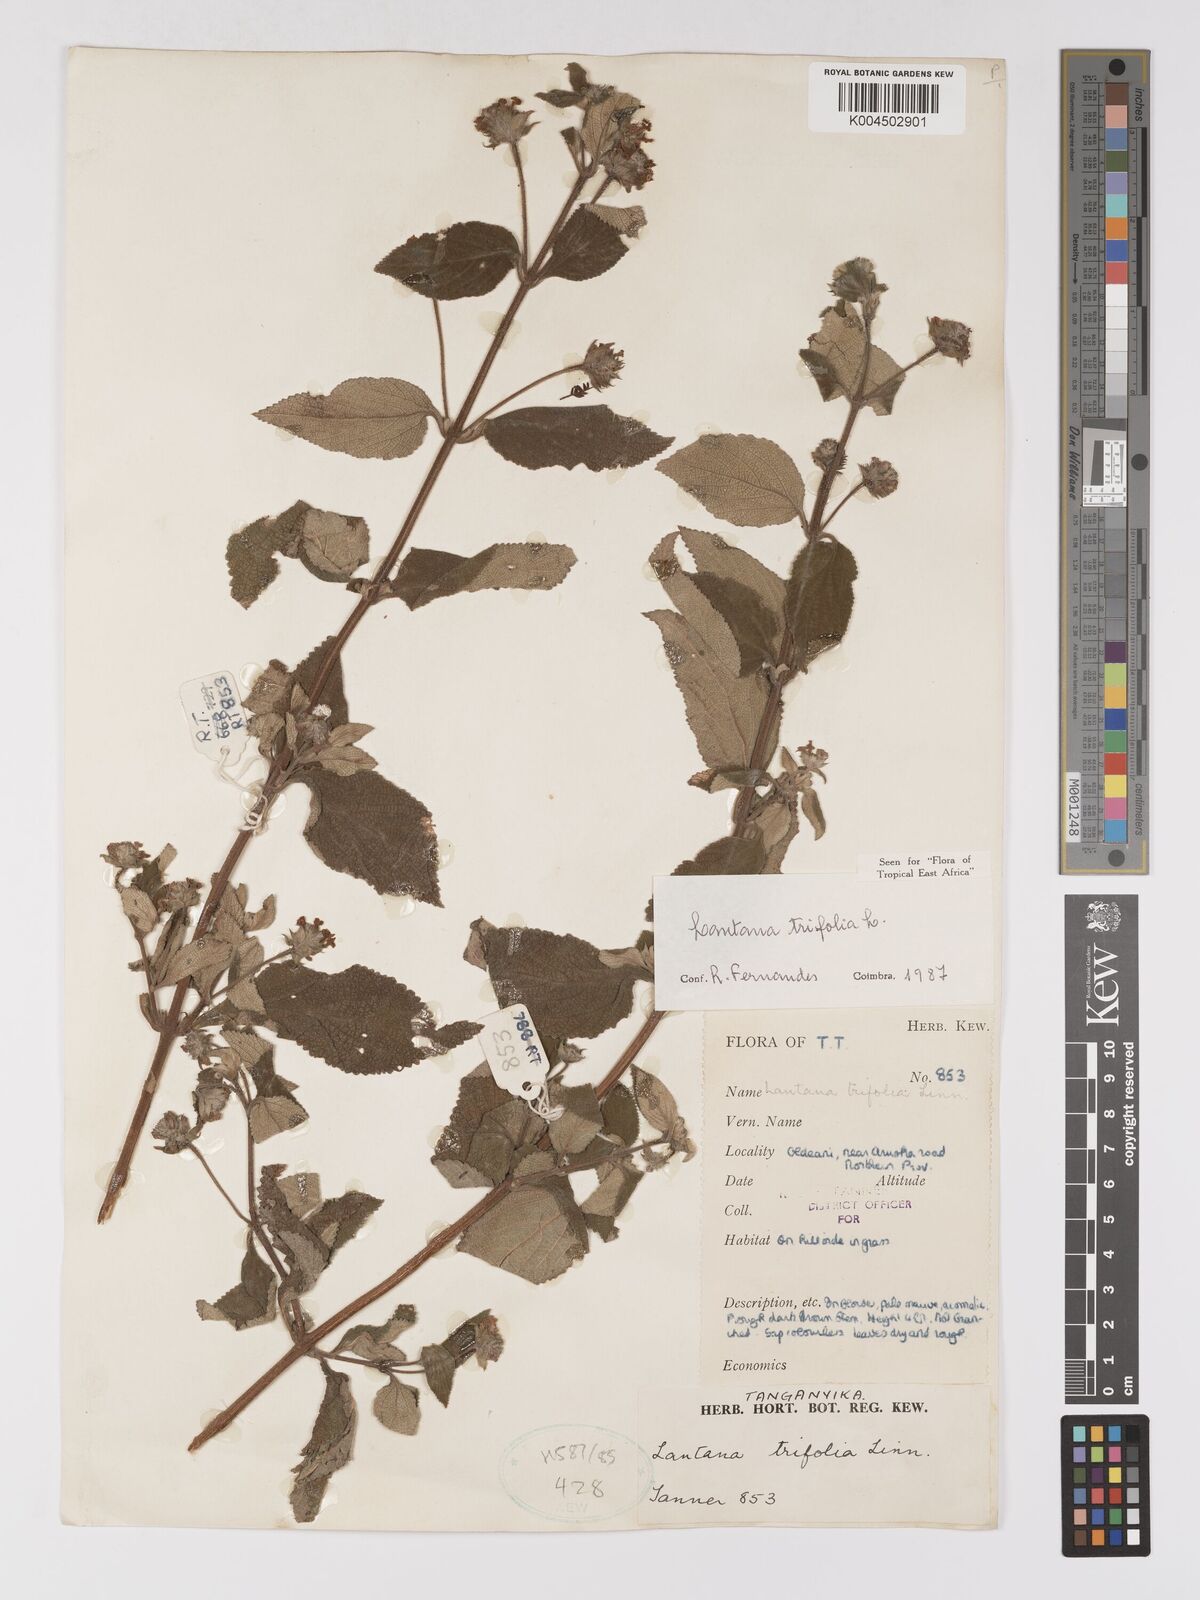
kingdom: Plantae
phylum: Tracheophyta
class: Magnoliopsida
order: Lamiales
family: Verbenaceae
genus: Lantana
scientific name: Lantana trifolia
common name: Sweet-sage
